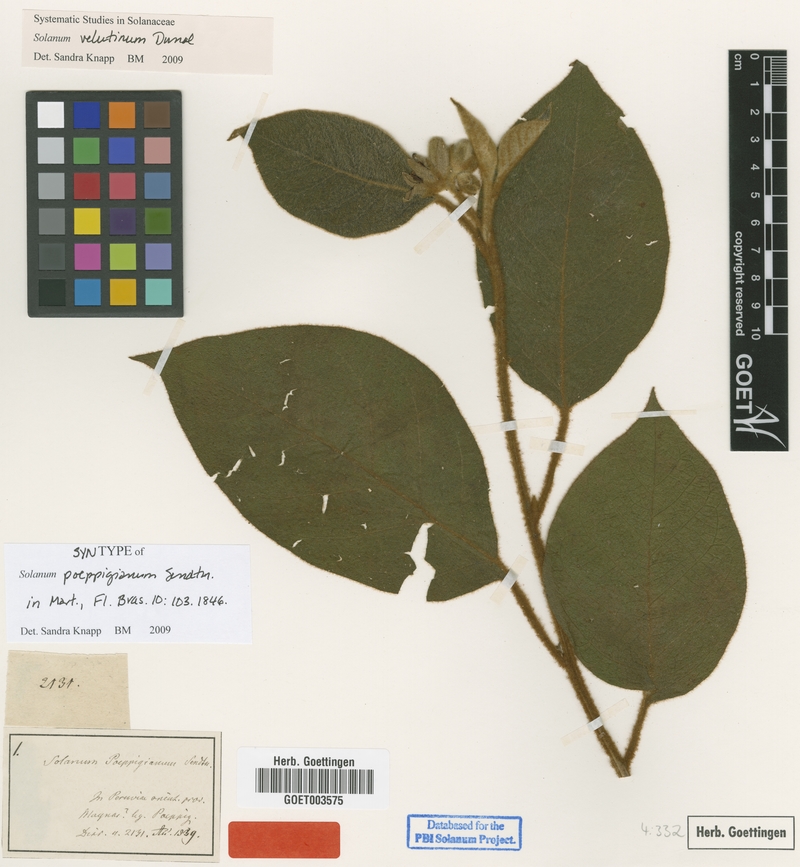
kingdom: Plantae
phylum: Tracheophyta
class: Magnoliopsida
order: Solanales
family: Solanaceae
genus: Solanum
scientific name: Solanum velutinum
